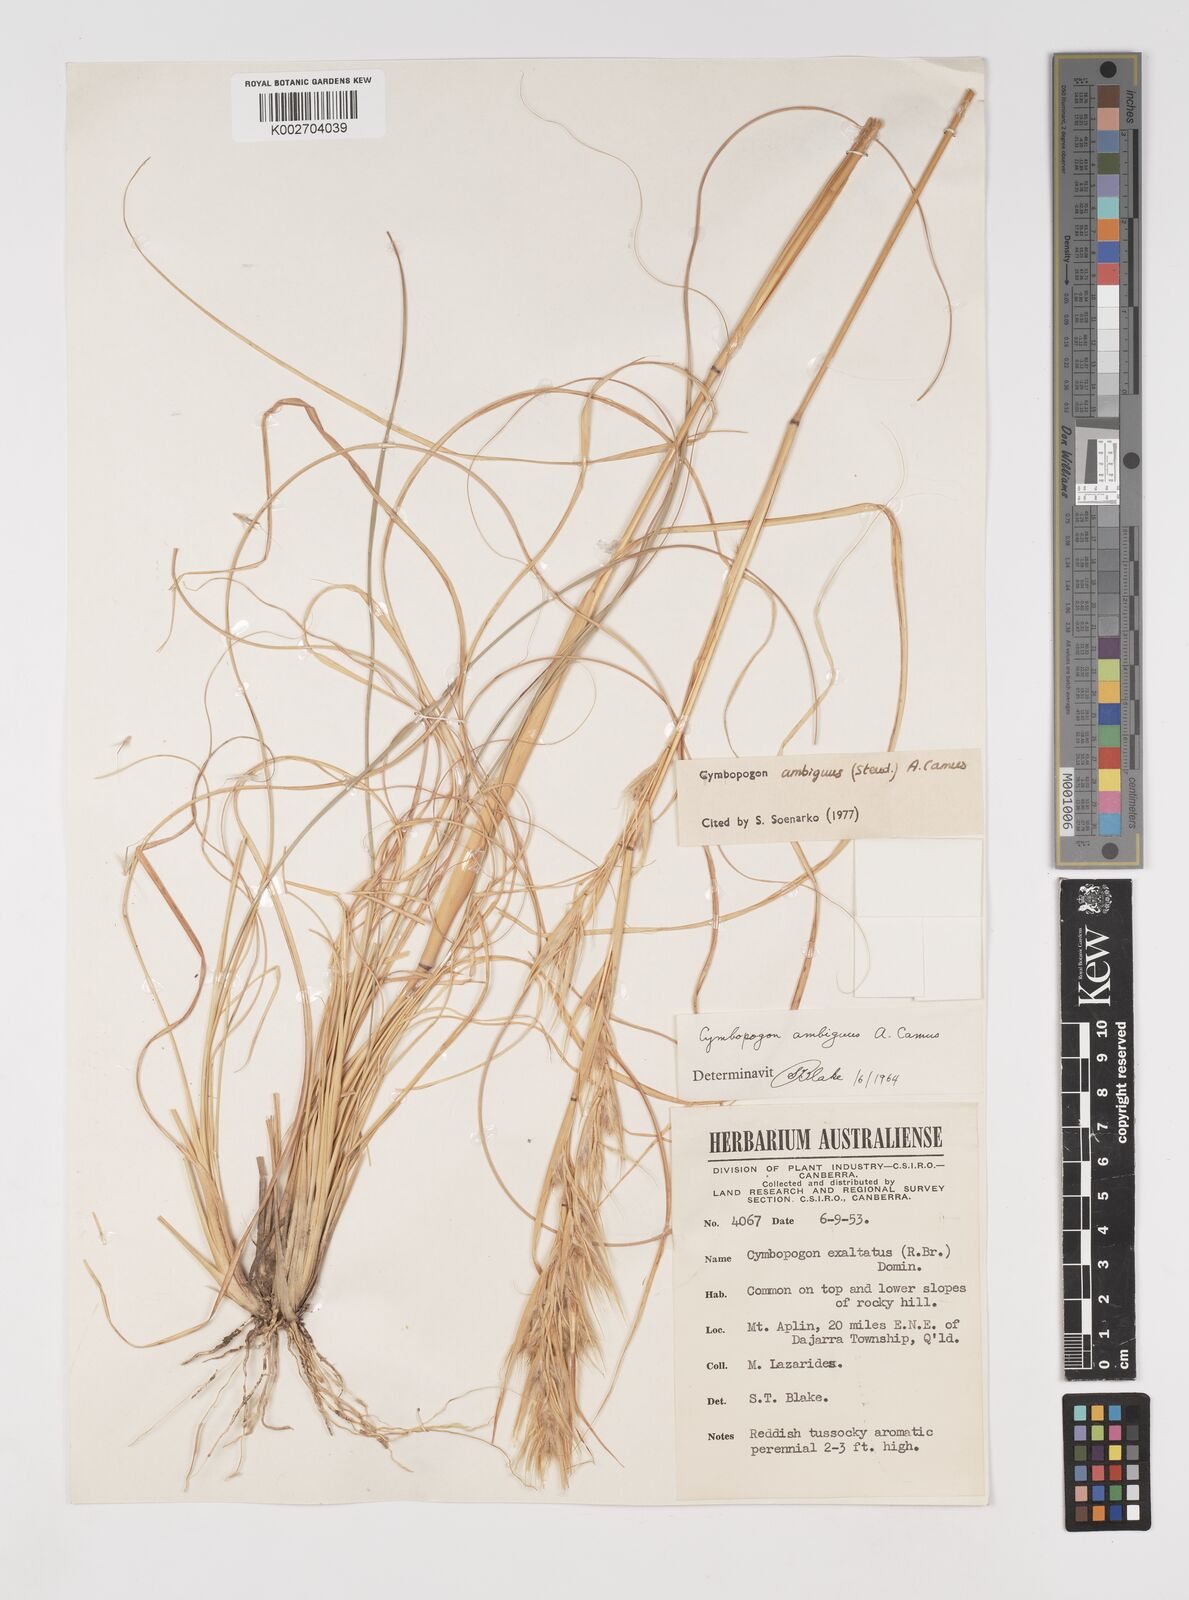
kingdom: Plantae
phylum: Tracheophyta
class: Liliopsida
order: Poales
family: Poaceae
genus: Cymbopogon
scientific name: Cymbopogon ambiguus
